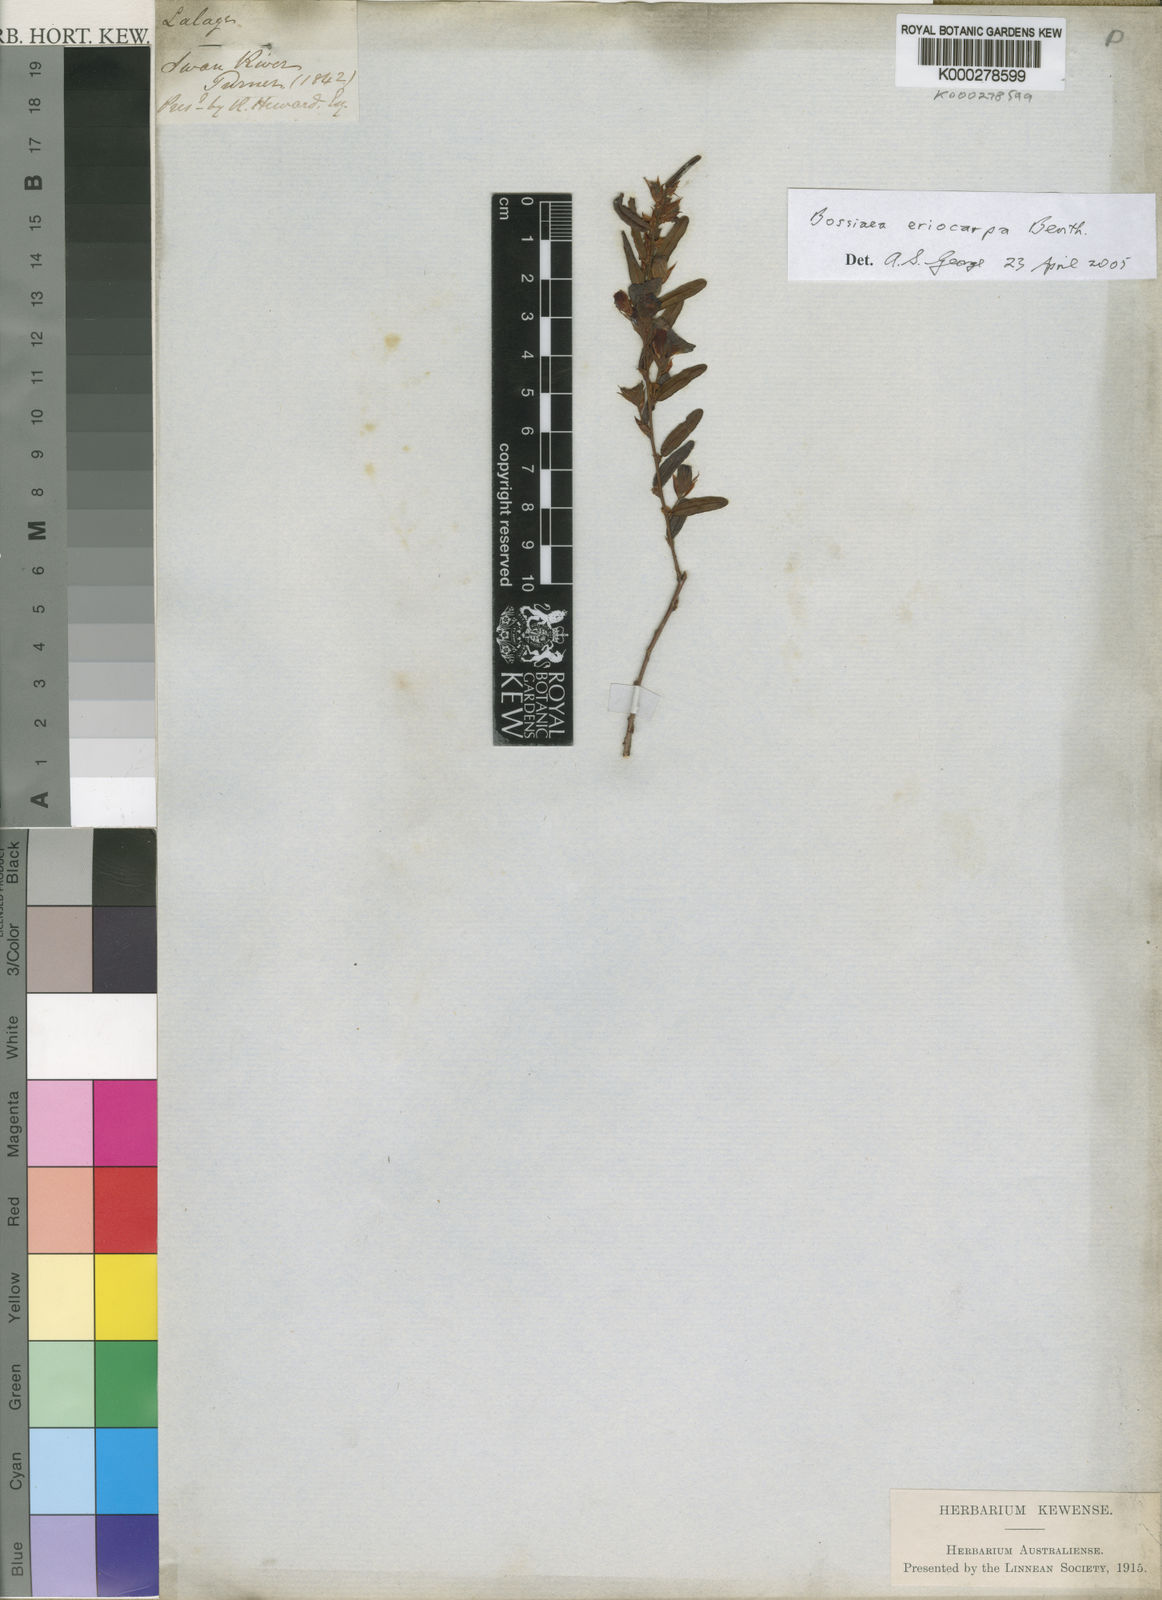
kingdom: Plantae
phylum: Tracheophyta
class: Magnoliopsida
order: Fabales
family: Fabaceae
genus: Bossiaea
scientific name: Bossiaea eriocarpa
